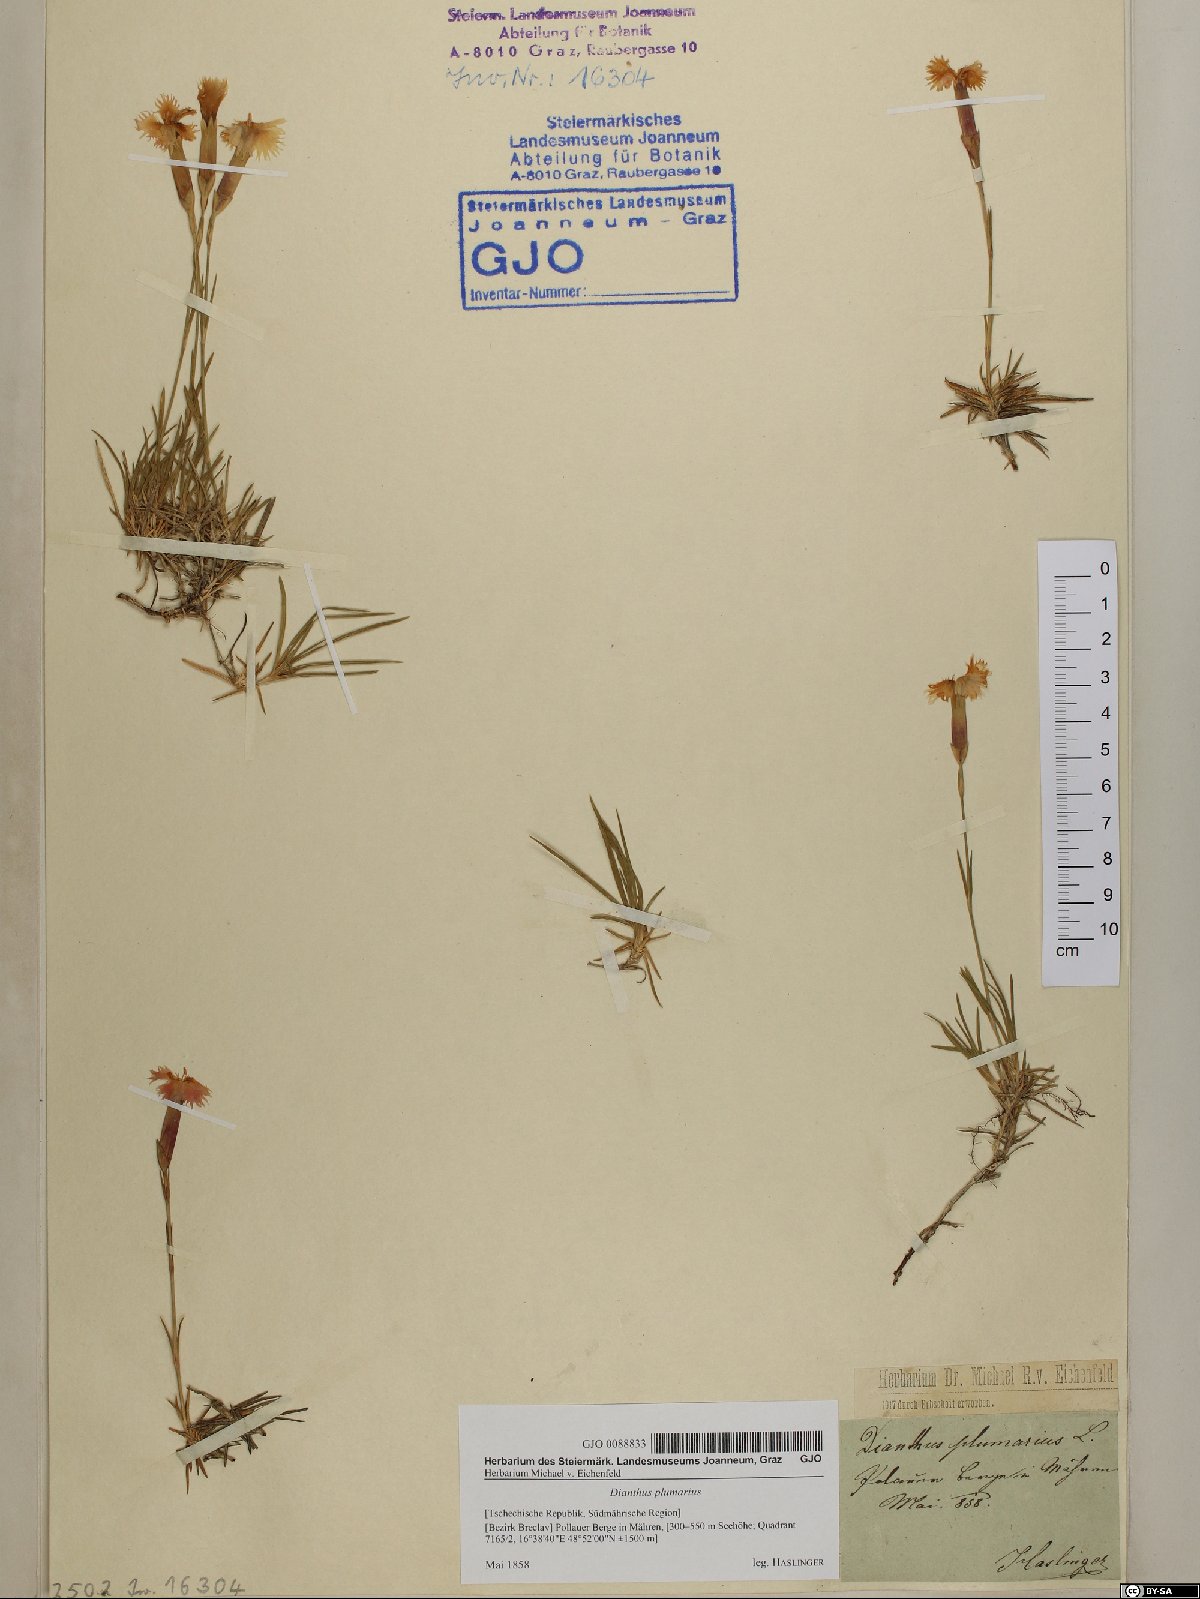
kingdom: Plantae
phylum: Tracheophyta
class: Magnoliopsida
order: Caryophyllales
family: Caryophyllaceae
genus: Dianthus
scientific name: Dianthus plumarius
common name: Pink
